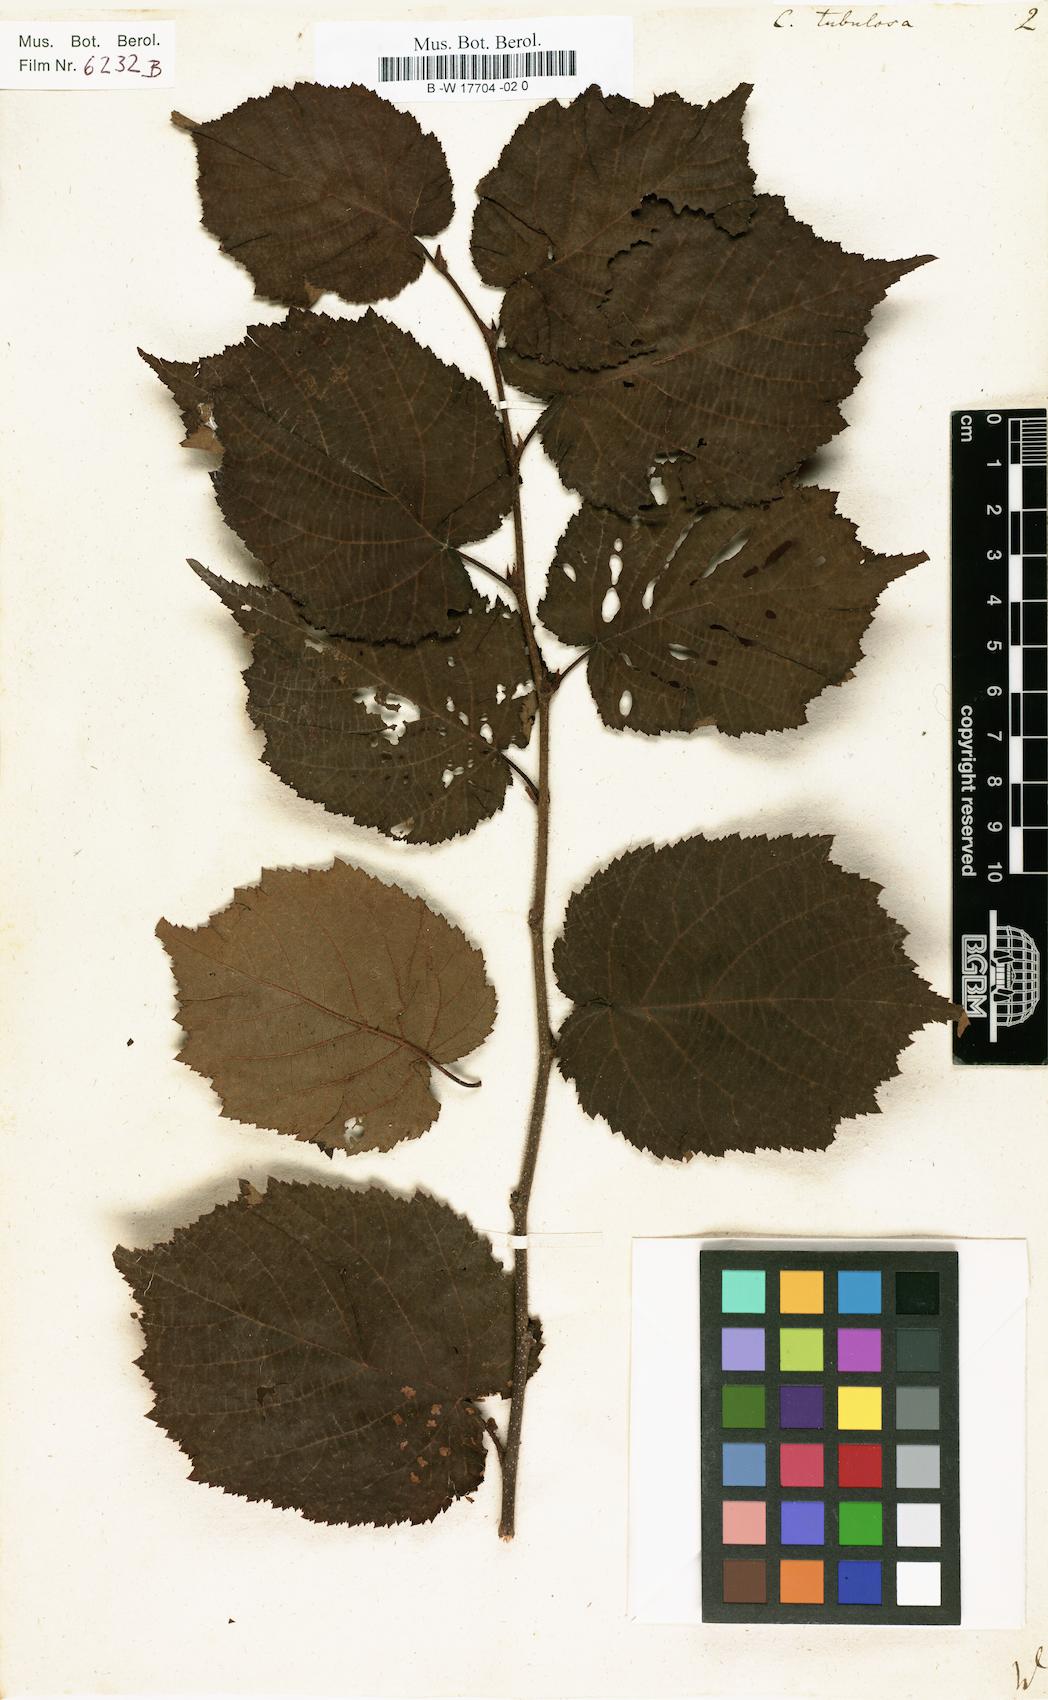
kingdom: Plantae
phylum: Tracheophyta
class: Magnoliopsida
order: Fagales
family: Betulaceae
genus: Corylus
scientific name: Corylus maxima
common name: Filbert
